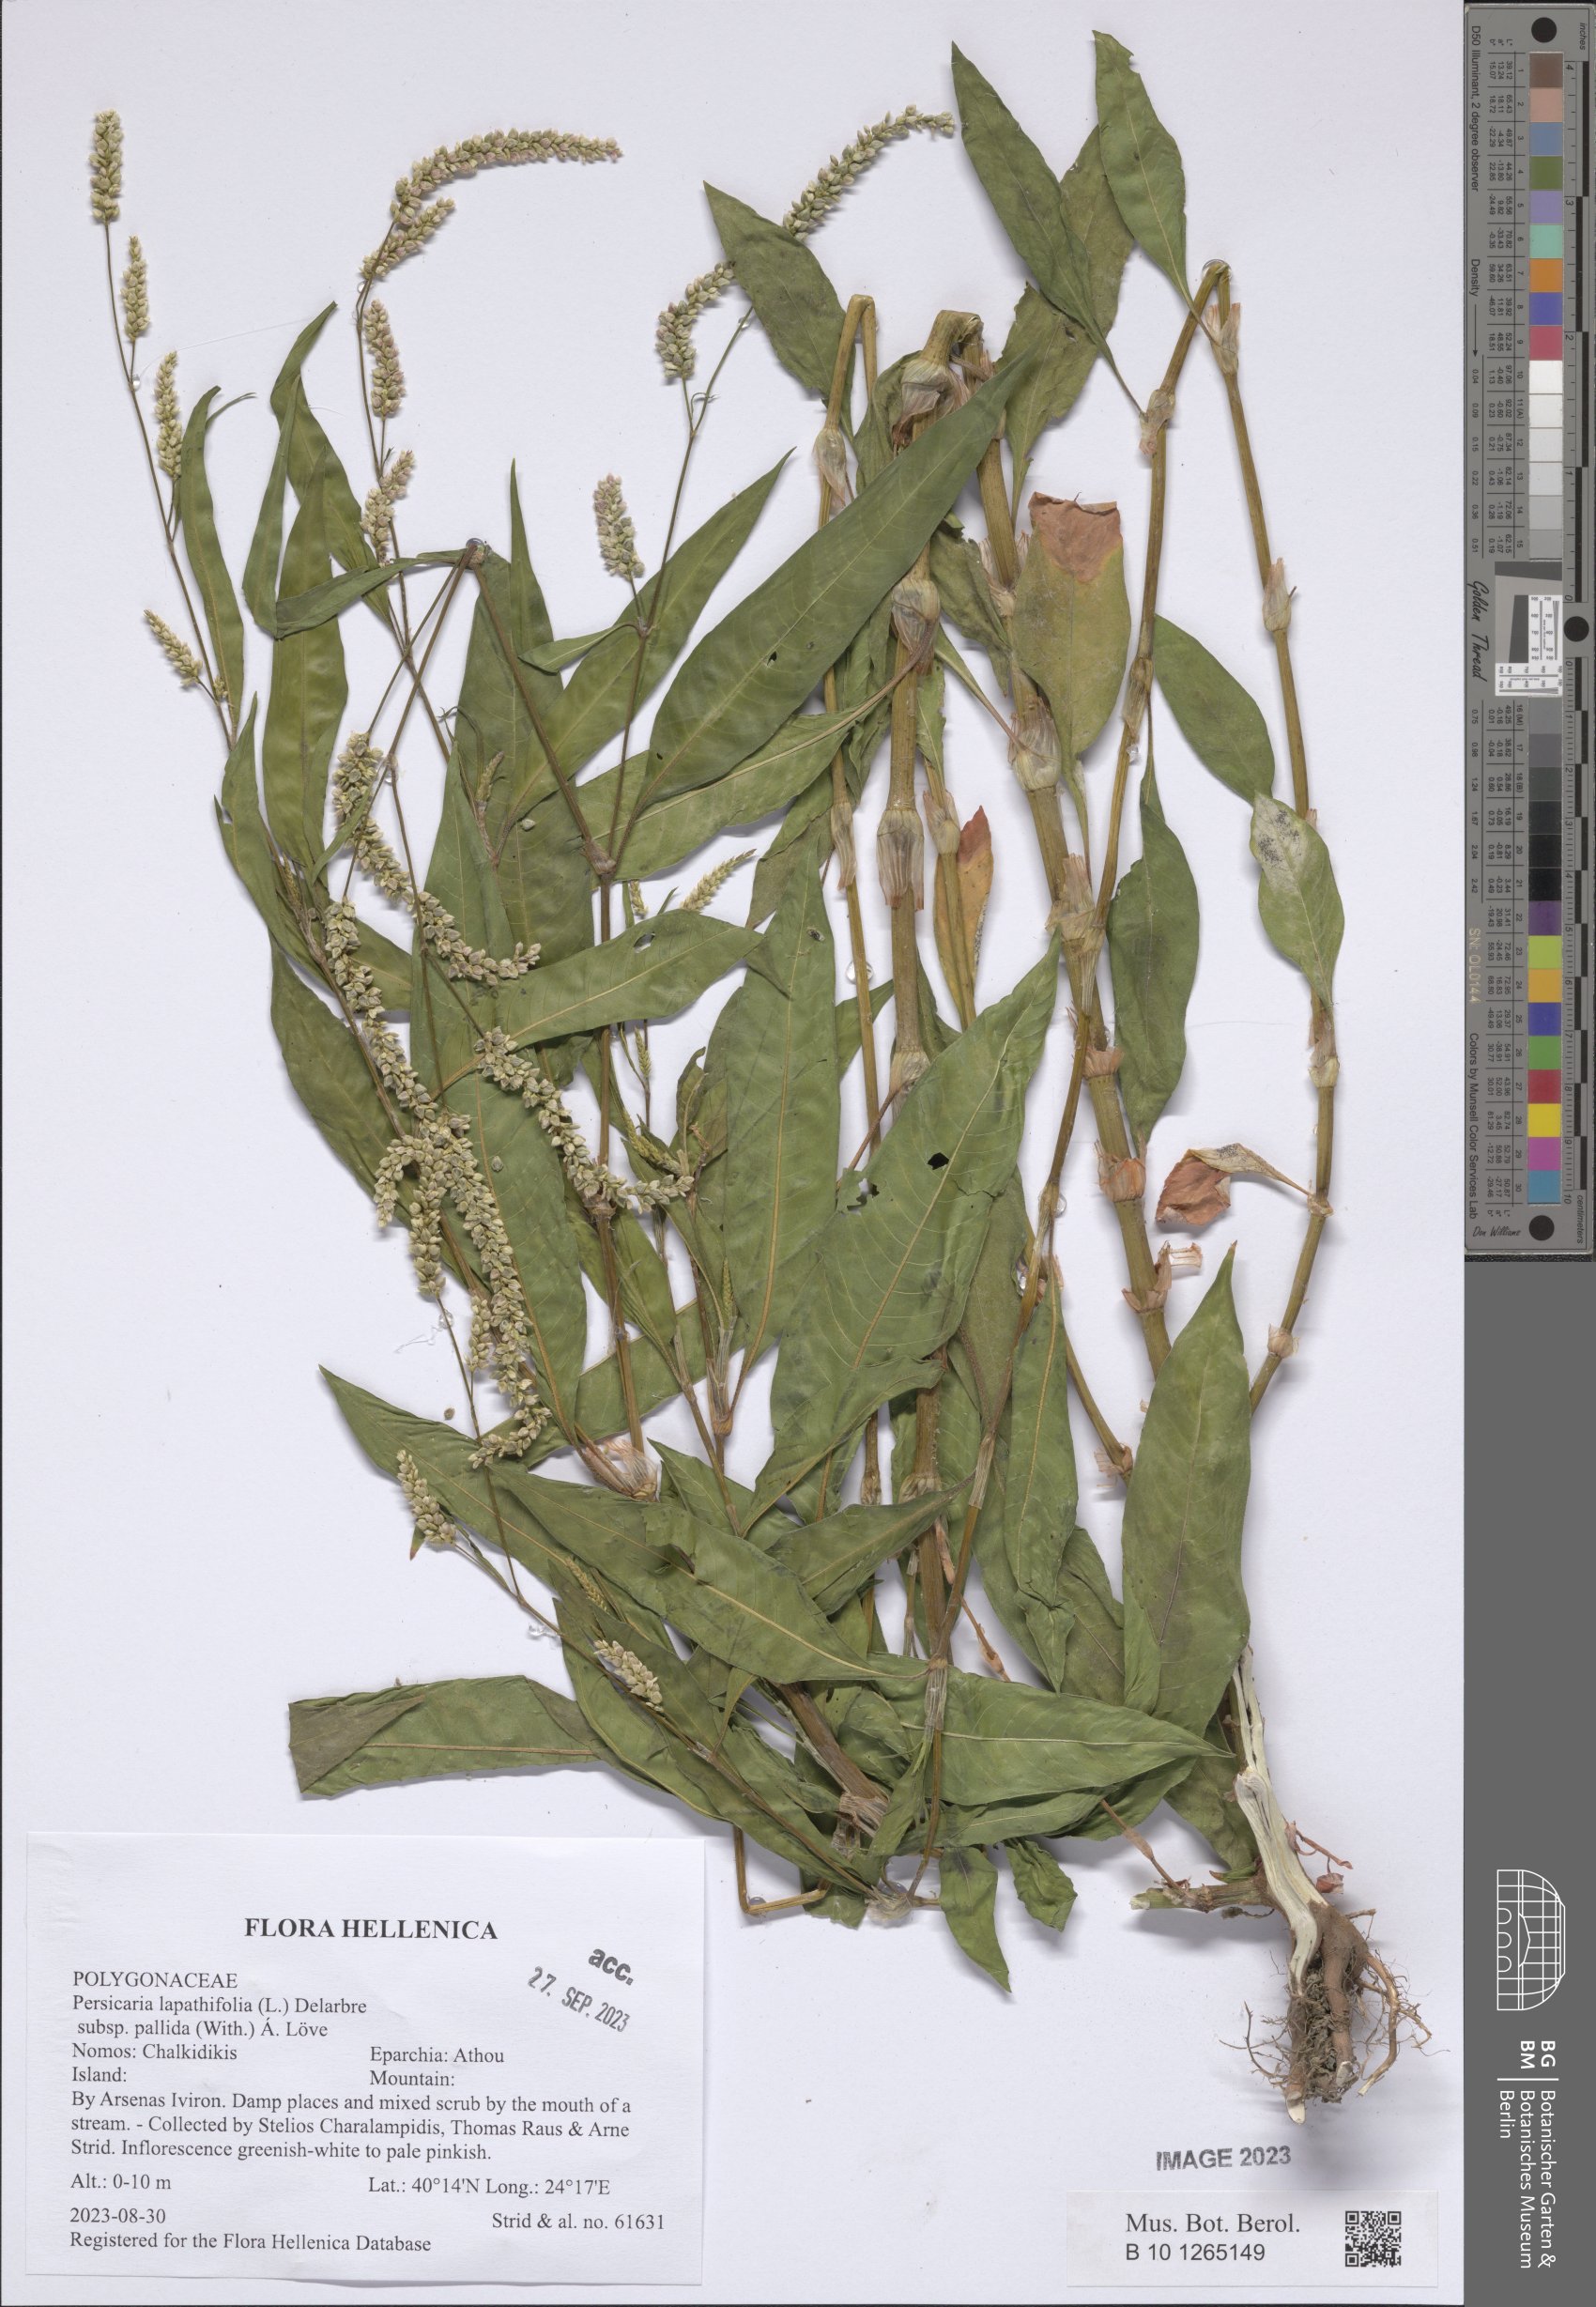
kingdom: Plantae
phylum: Tracheophyta
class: Magnoliopsida
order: Caryophyllales
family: Polygonaceae
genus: Persicaria
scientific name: Persicaria lapathifolia
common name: Curlytop knotweed
